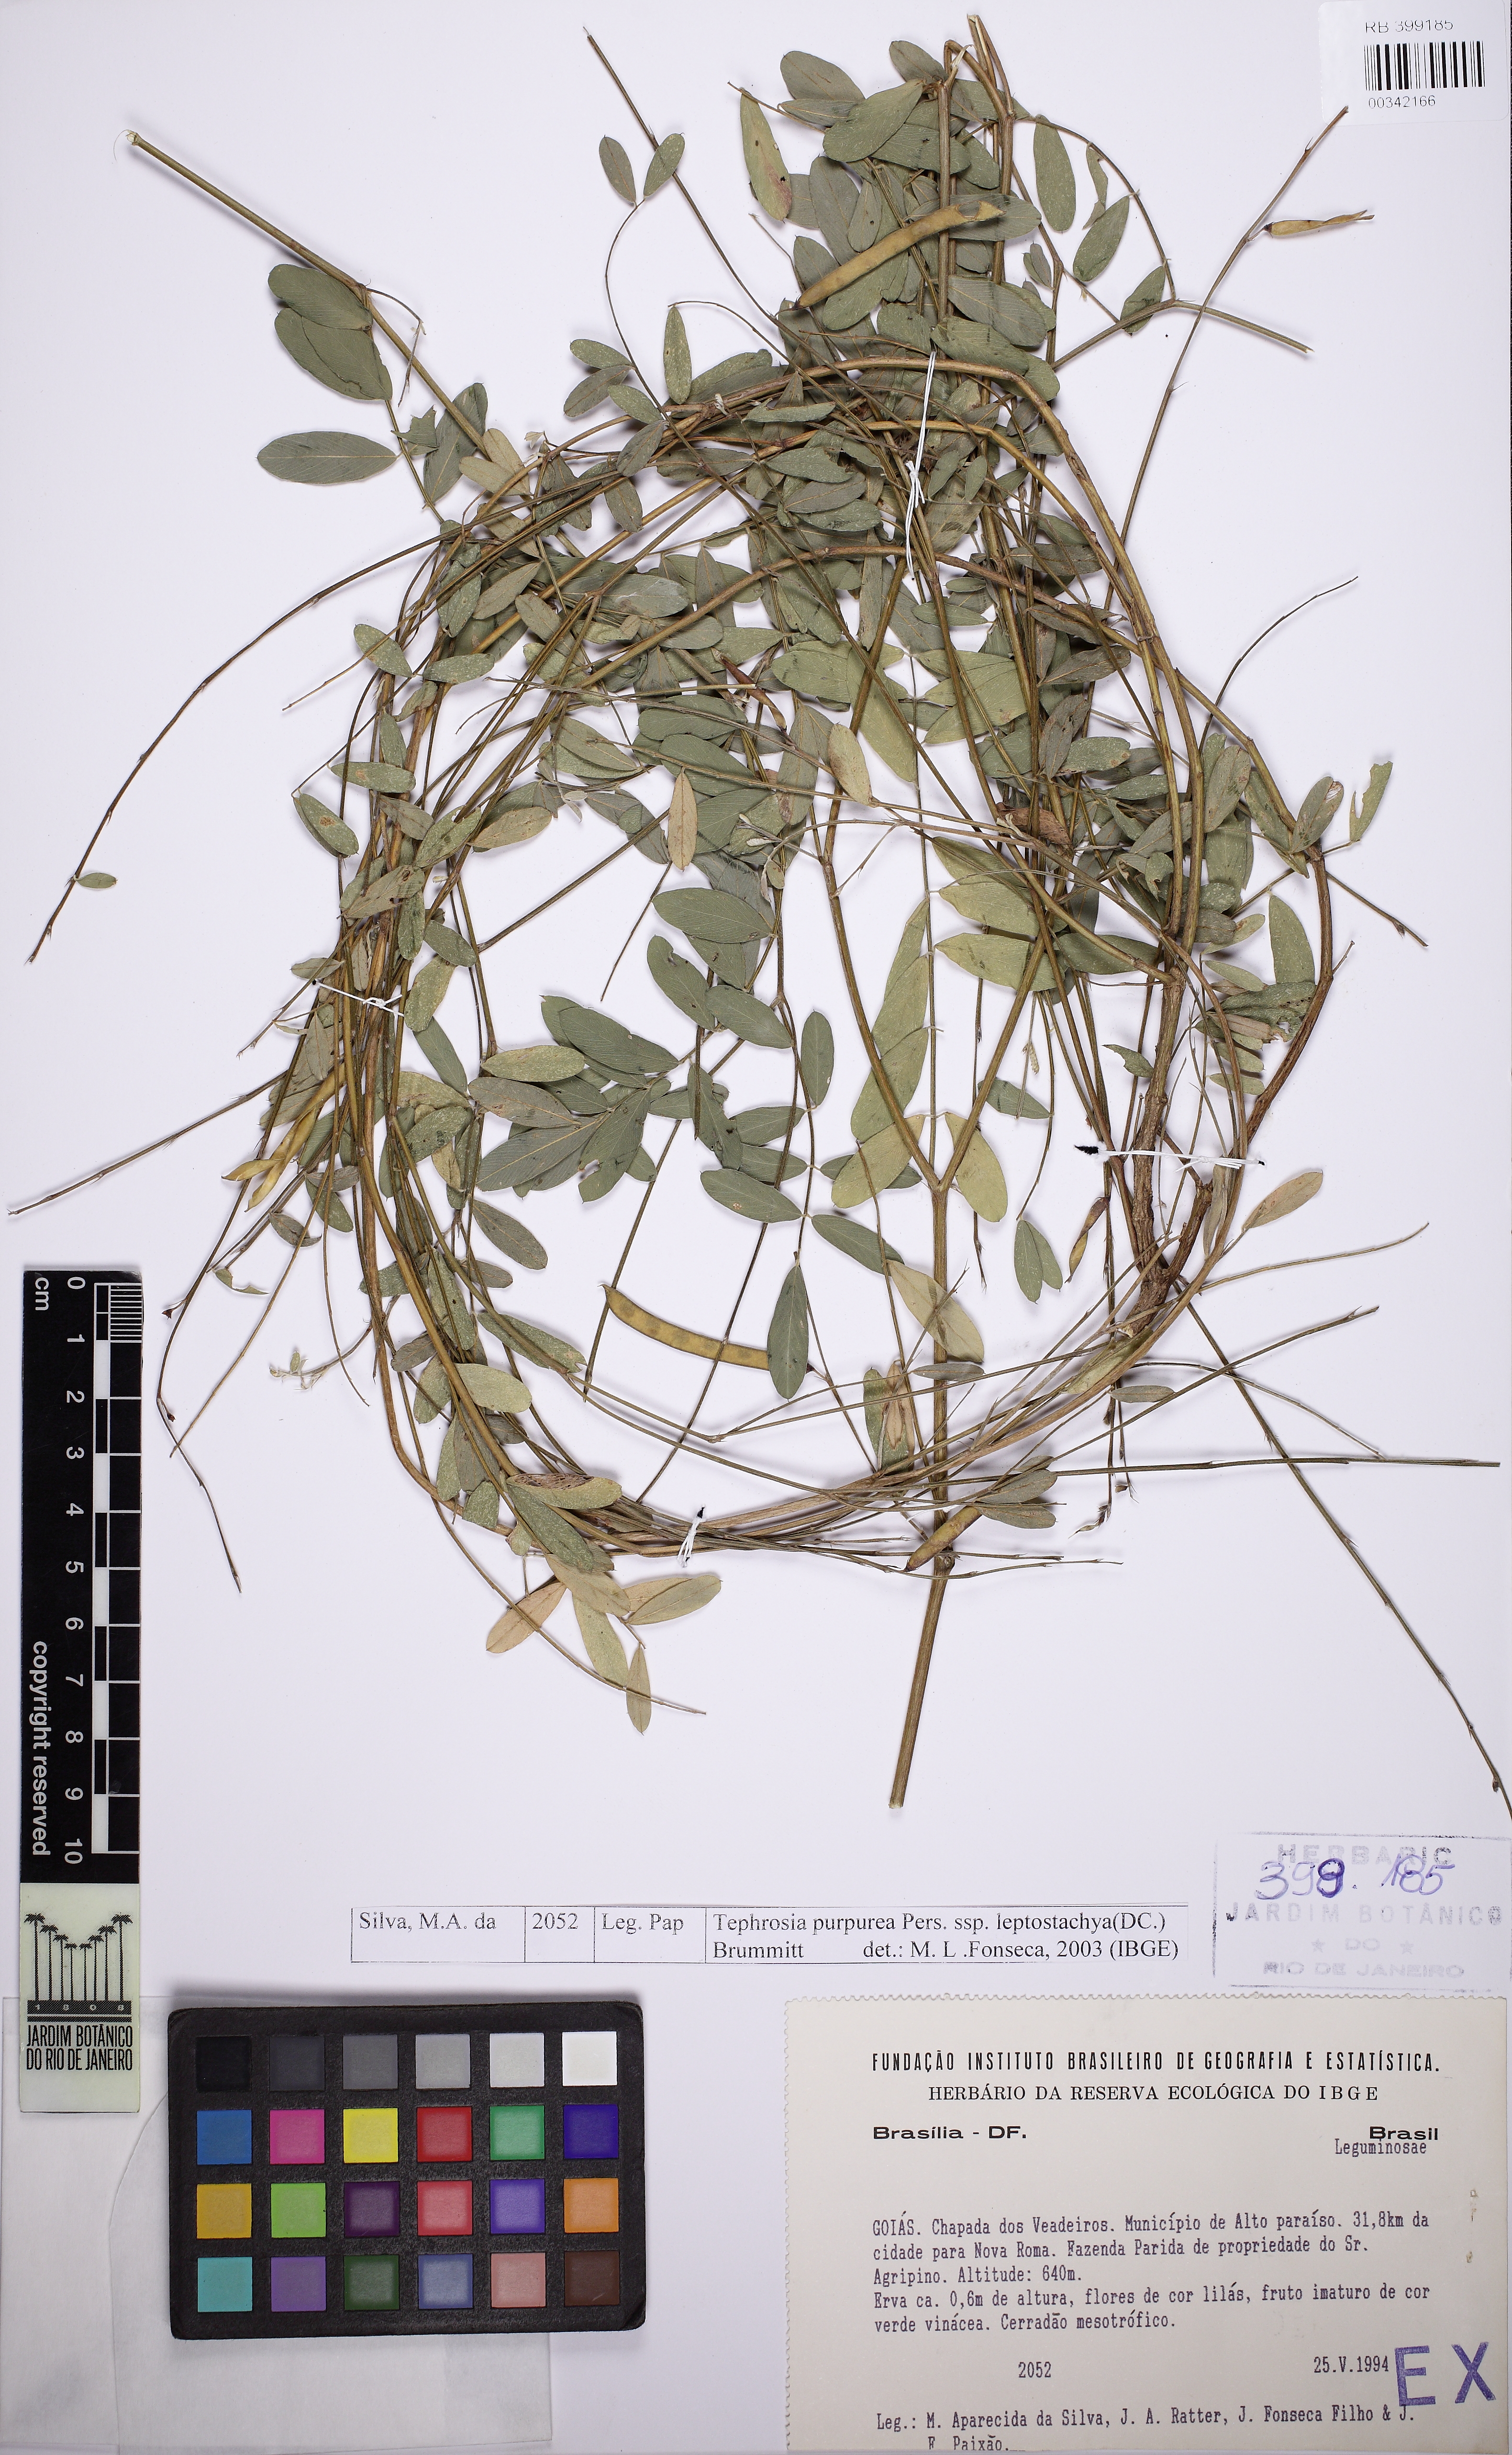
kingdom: Plantae
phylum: Tracheophyta
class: Magnoliopsida
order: Fabales
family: Fabaceae
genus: Tephrosia
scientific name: Tephrosia purpurea
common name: Fishpoison
